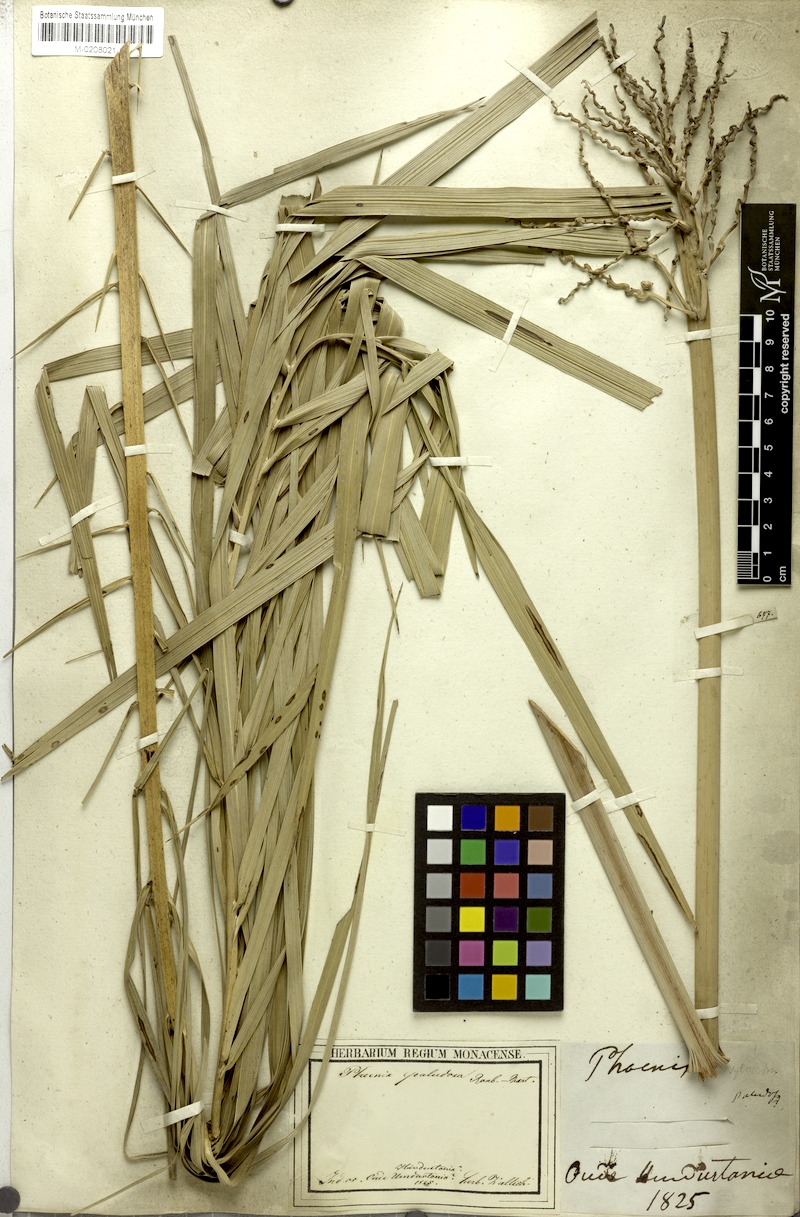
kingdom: Plantae
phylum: Tracheophyta
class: Liliopsida
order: Arecales
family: Arecaceae
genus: Phoenix
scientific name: Phoenix paludosa
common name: Mangrove date palm
